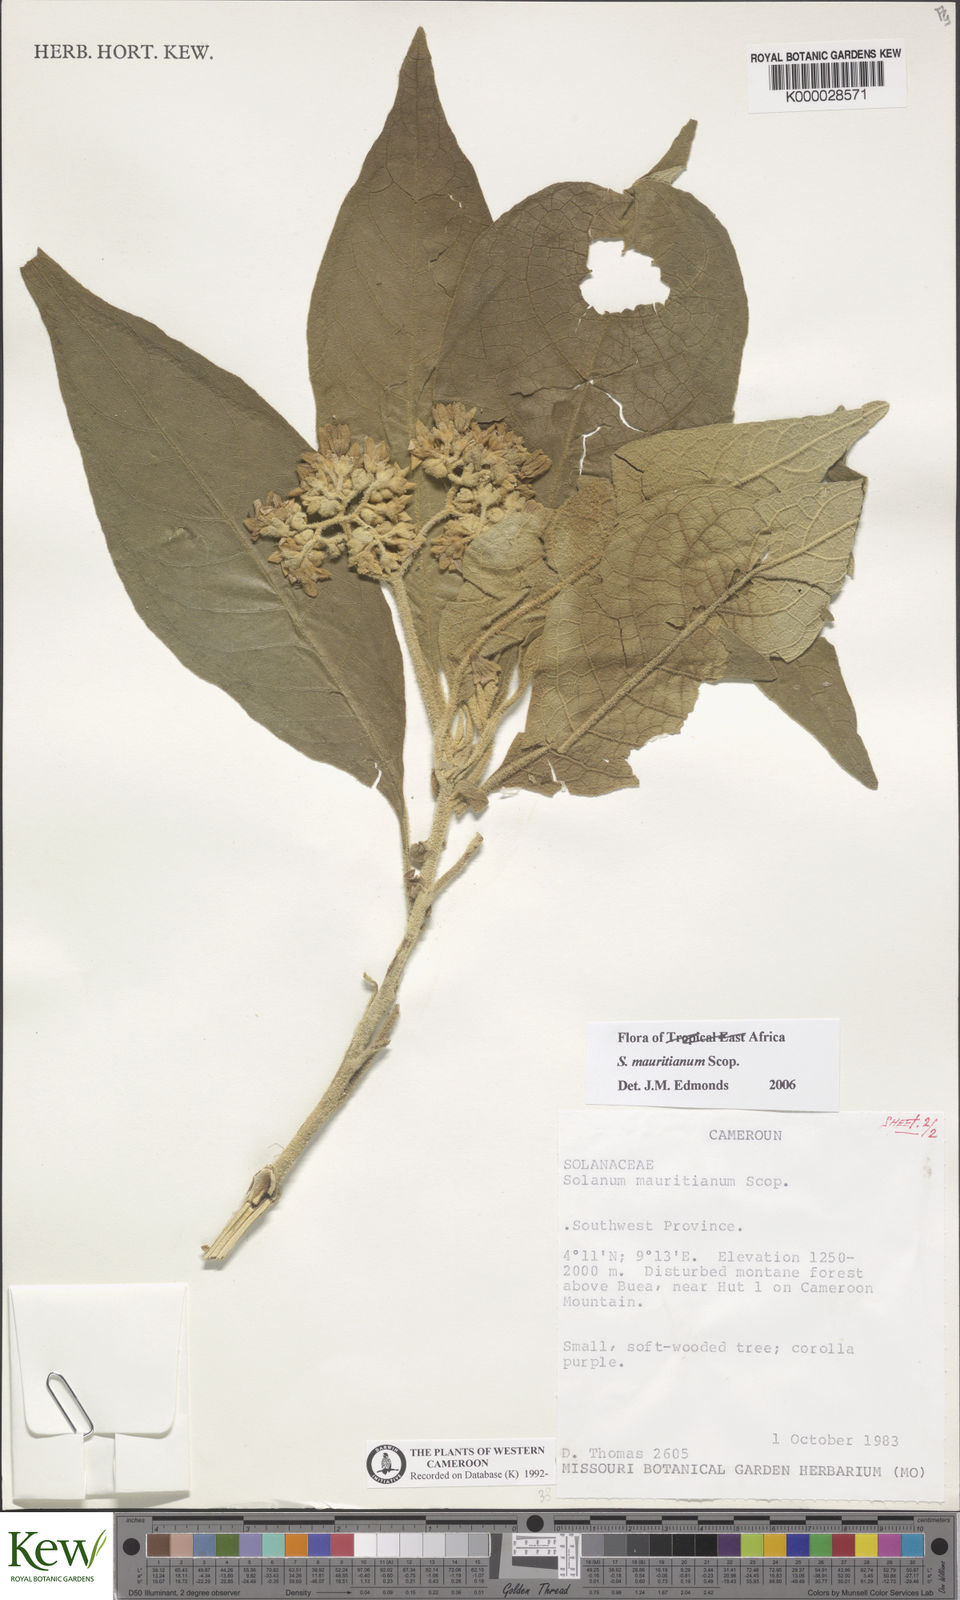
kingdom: Plantae
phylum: Tracheophyta
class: Magnoliopsida
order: Solanales
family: Solanaceae
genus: Solanum
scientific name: Solanum mauritianum
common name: Earleaf nightshade
